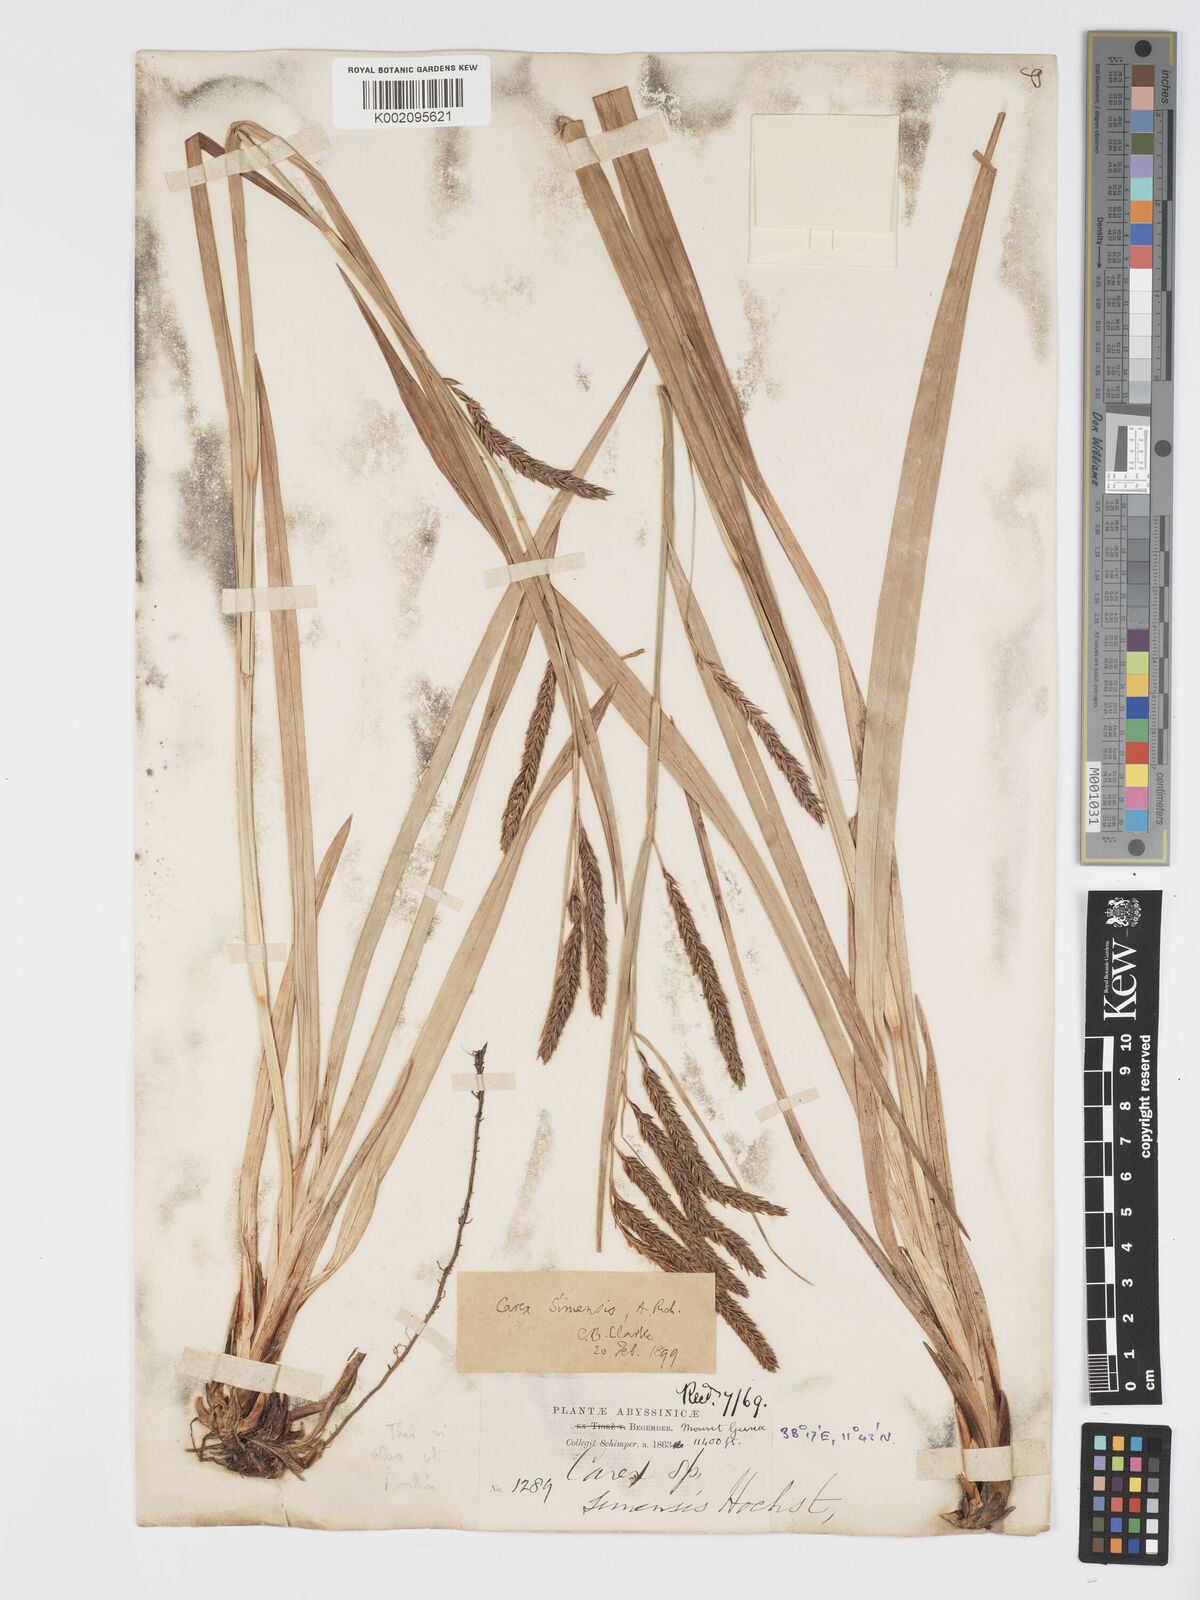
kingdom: Plantae
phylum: Tracheophyta
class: Liliopsida
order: Poales
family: Cyperaceae
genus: Carex
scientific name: Carex simensis
